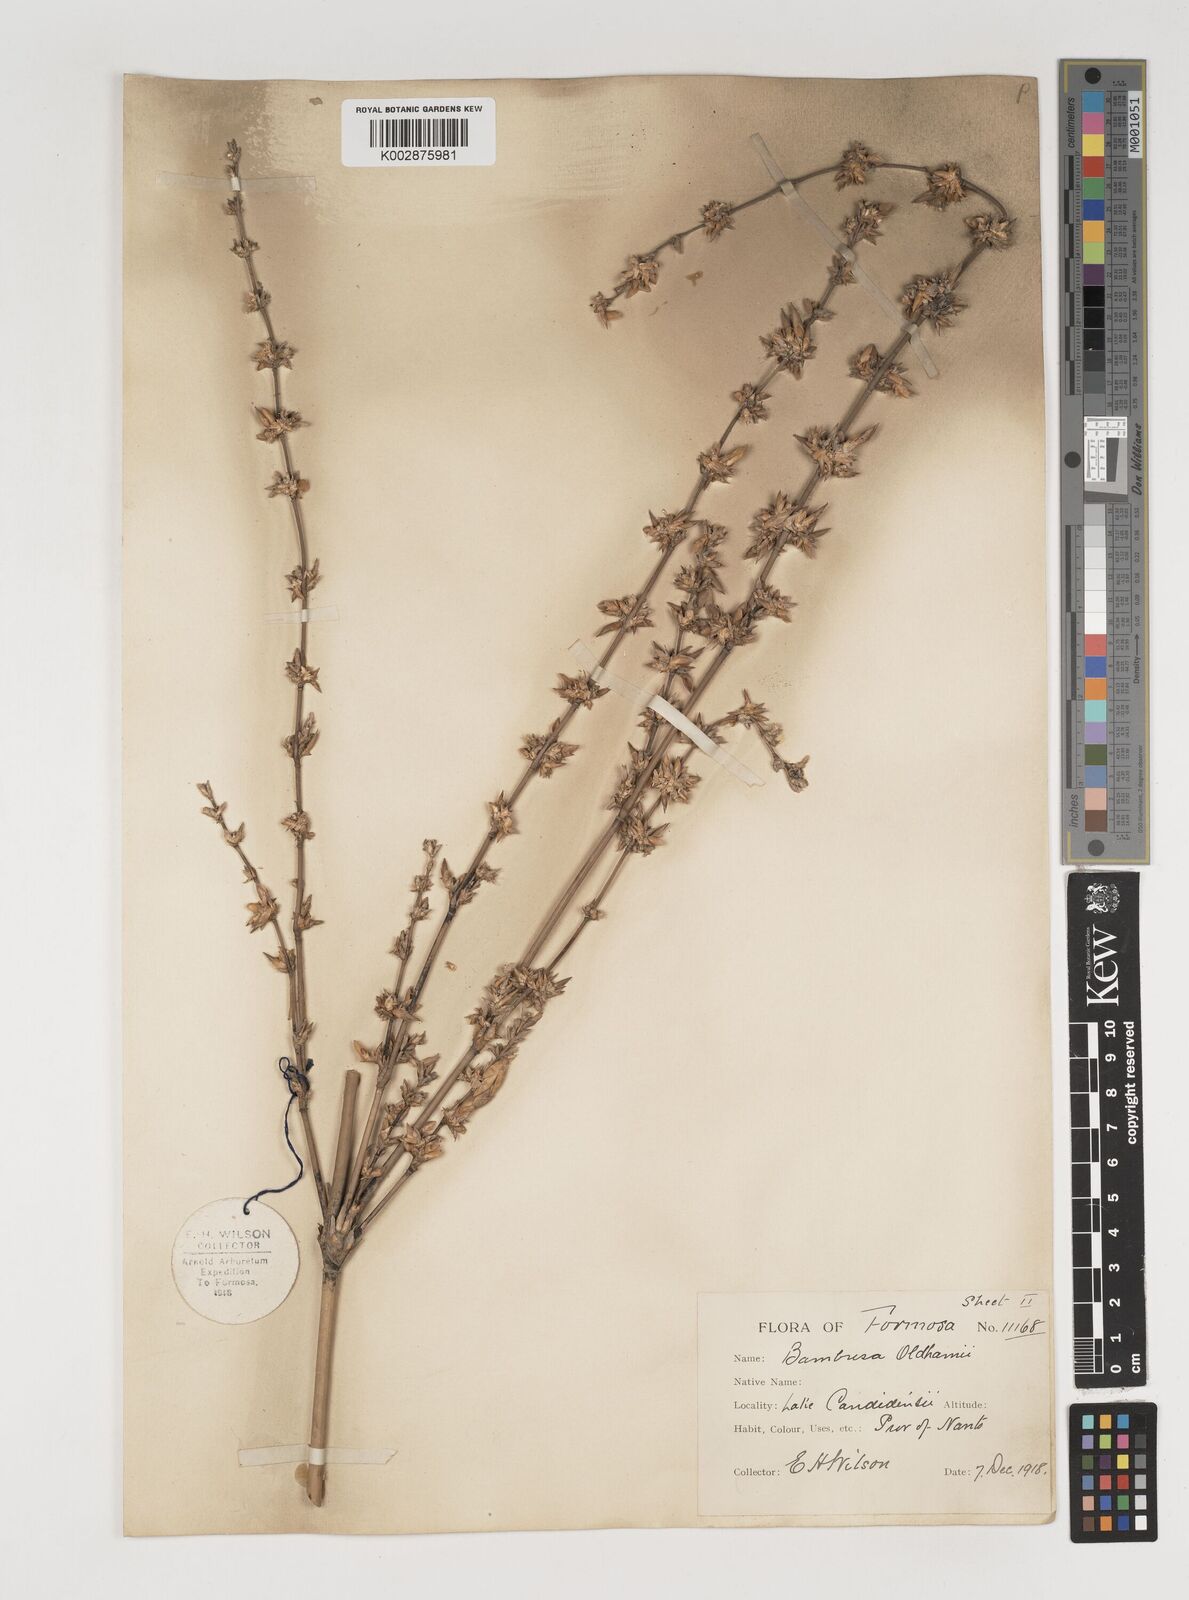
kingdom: Plantae
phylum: Tracheophyta
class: Liliopsida
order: Poales
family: Poaceae
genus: Bambusa
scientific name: Bambusa oldhamii
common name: Giant timber bamboo
